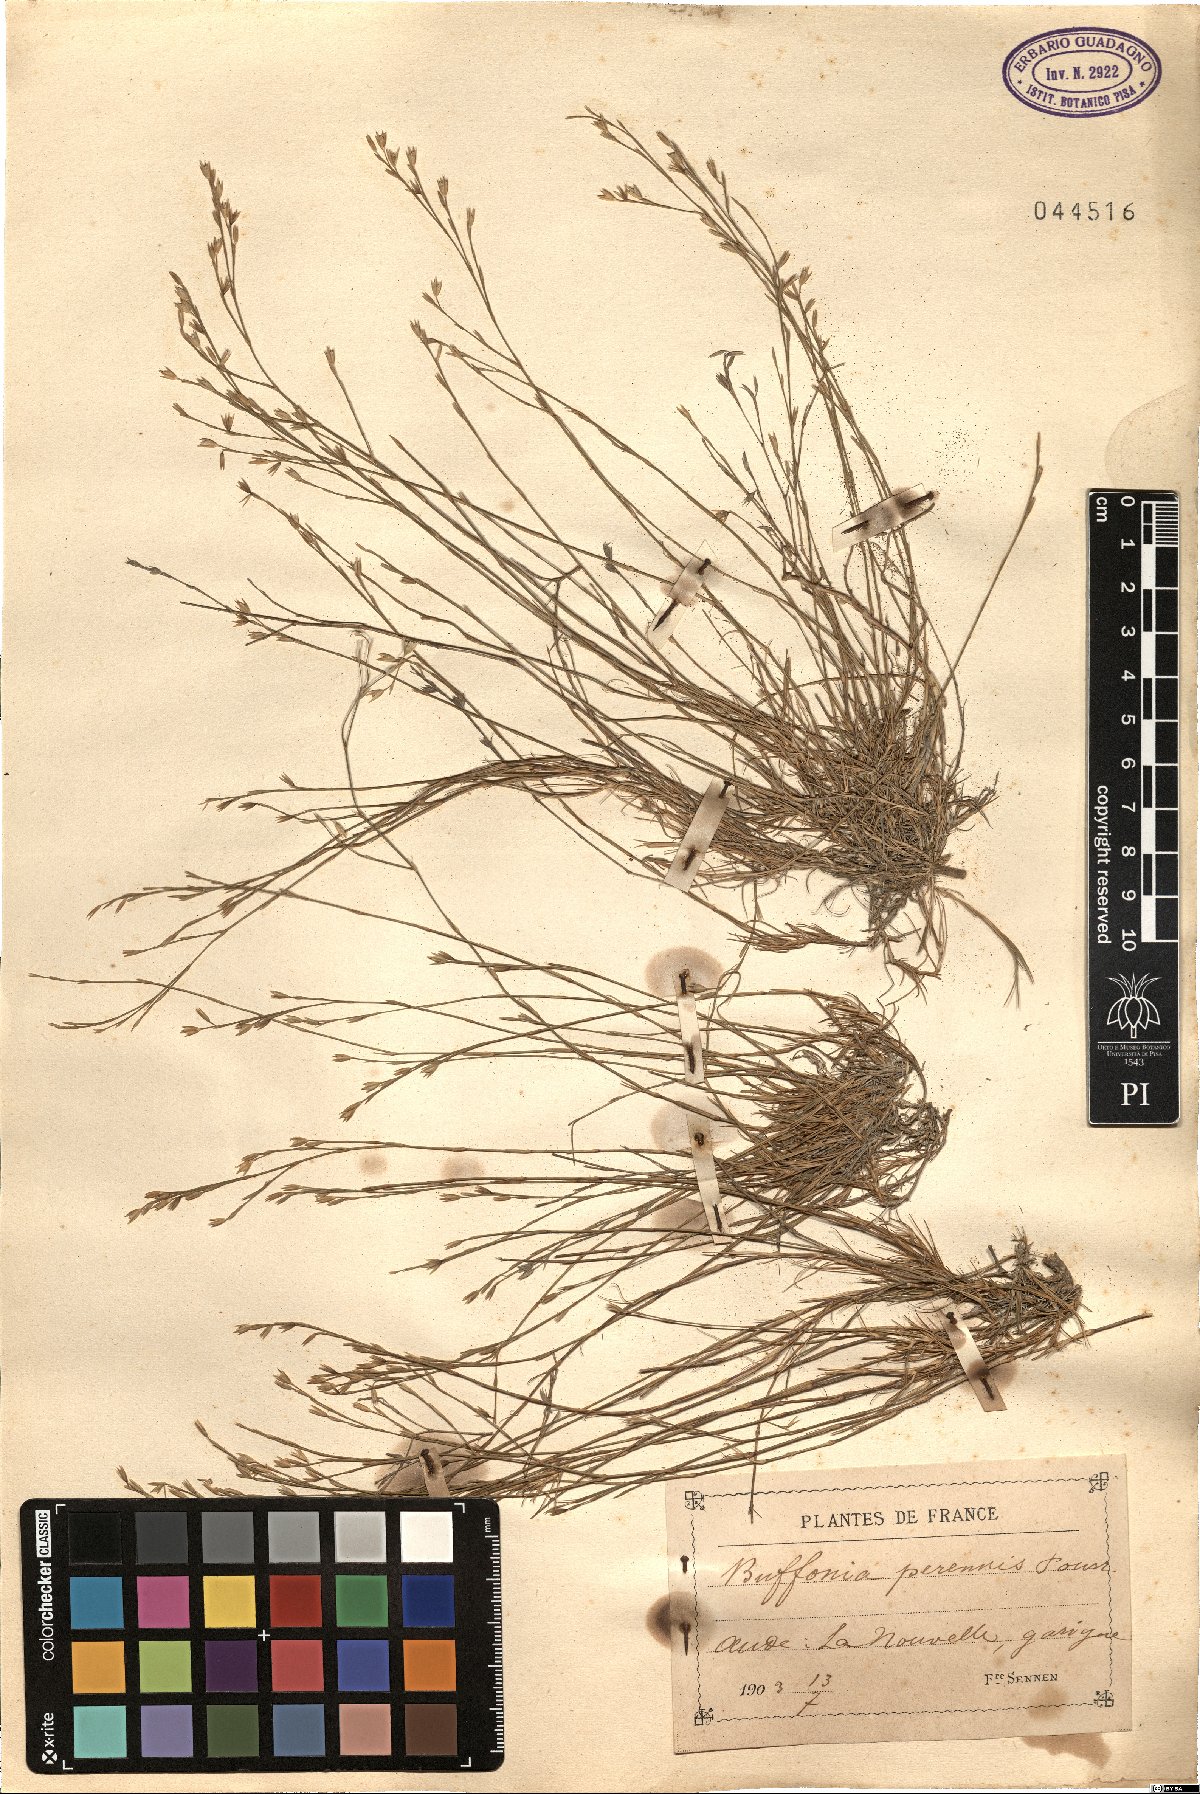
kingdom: Plantae
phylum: Tracheophyta
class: Magnoliopsida
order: Caryophyllales
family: Caryophyllaceae
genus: Bufonia
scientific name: Bufonia perennis
